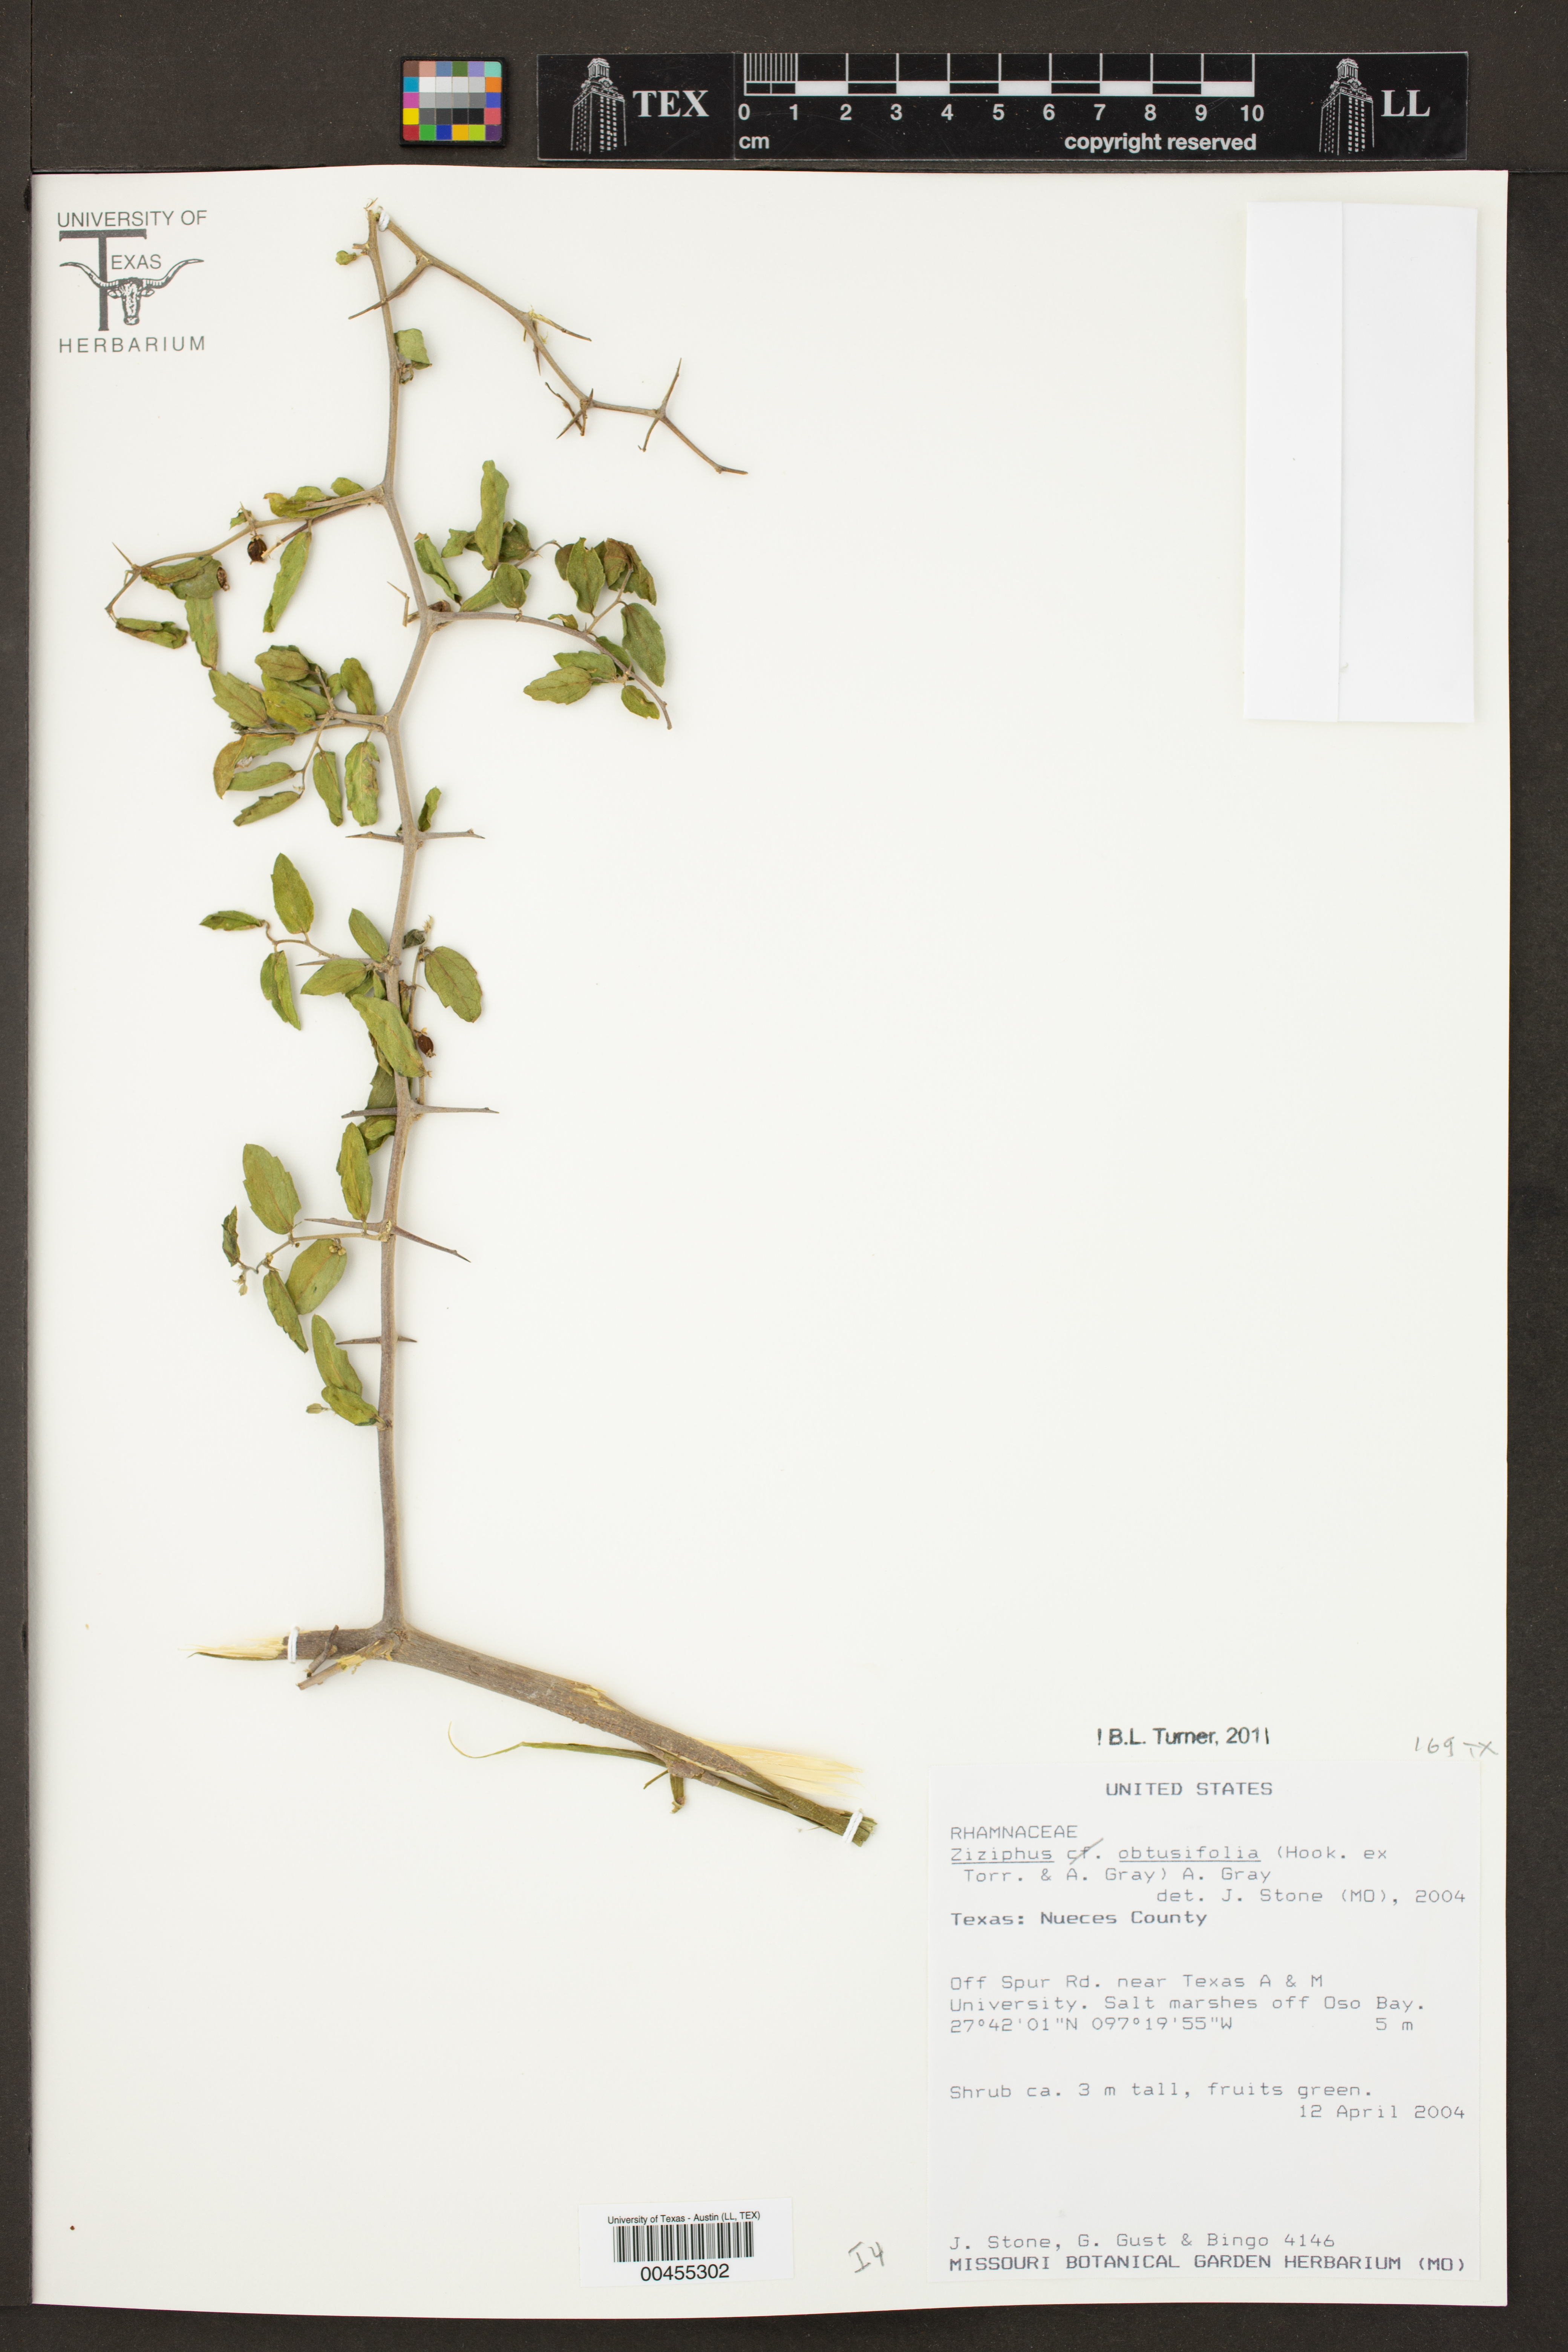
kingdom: Plantae
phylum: Tracheophyta
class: Magnoliopsida
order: Rosales
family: Rhamnaceae
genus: Sarcomphalus
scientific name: Sarcomphalus obtusifolius
